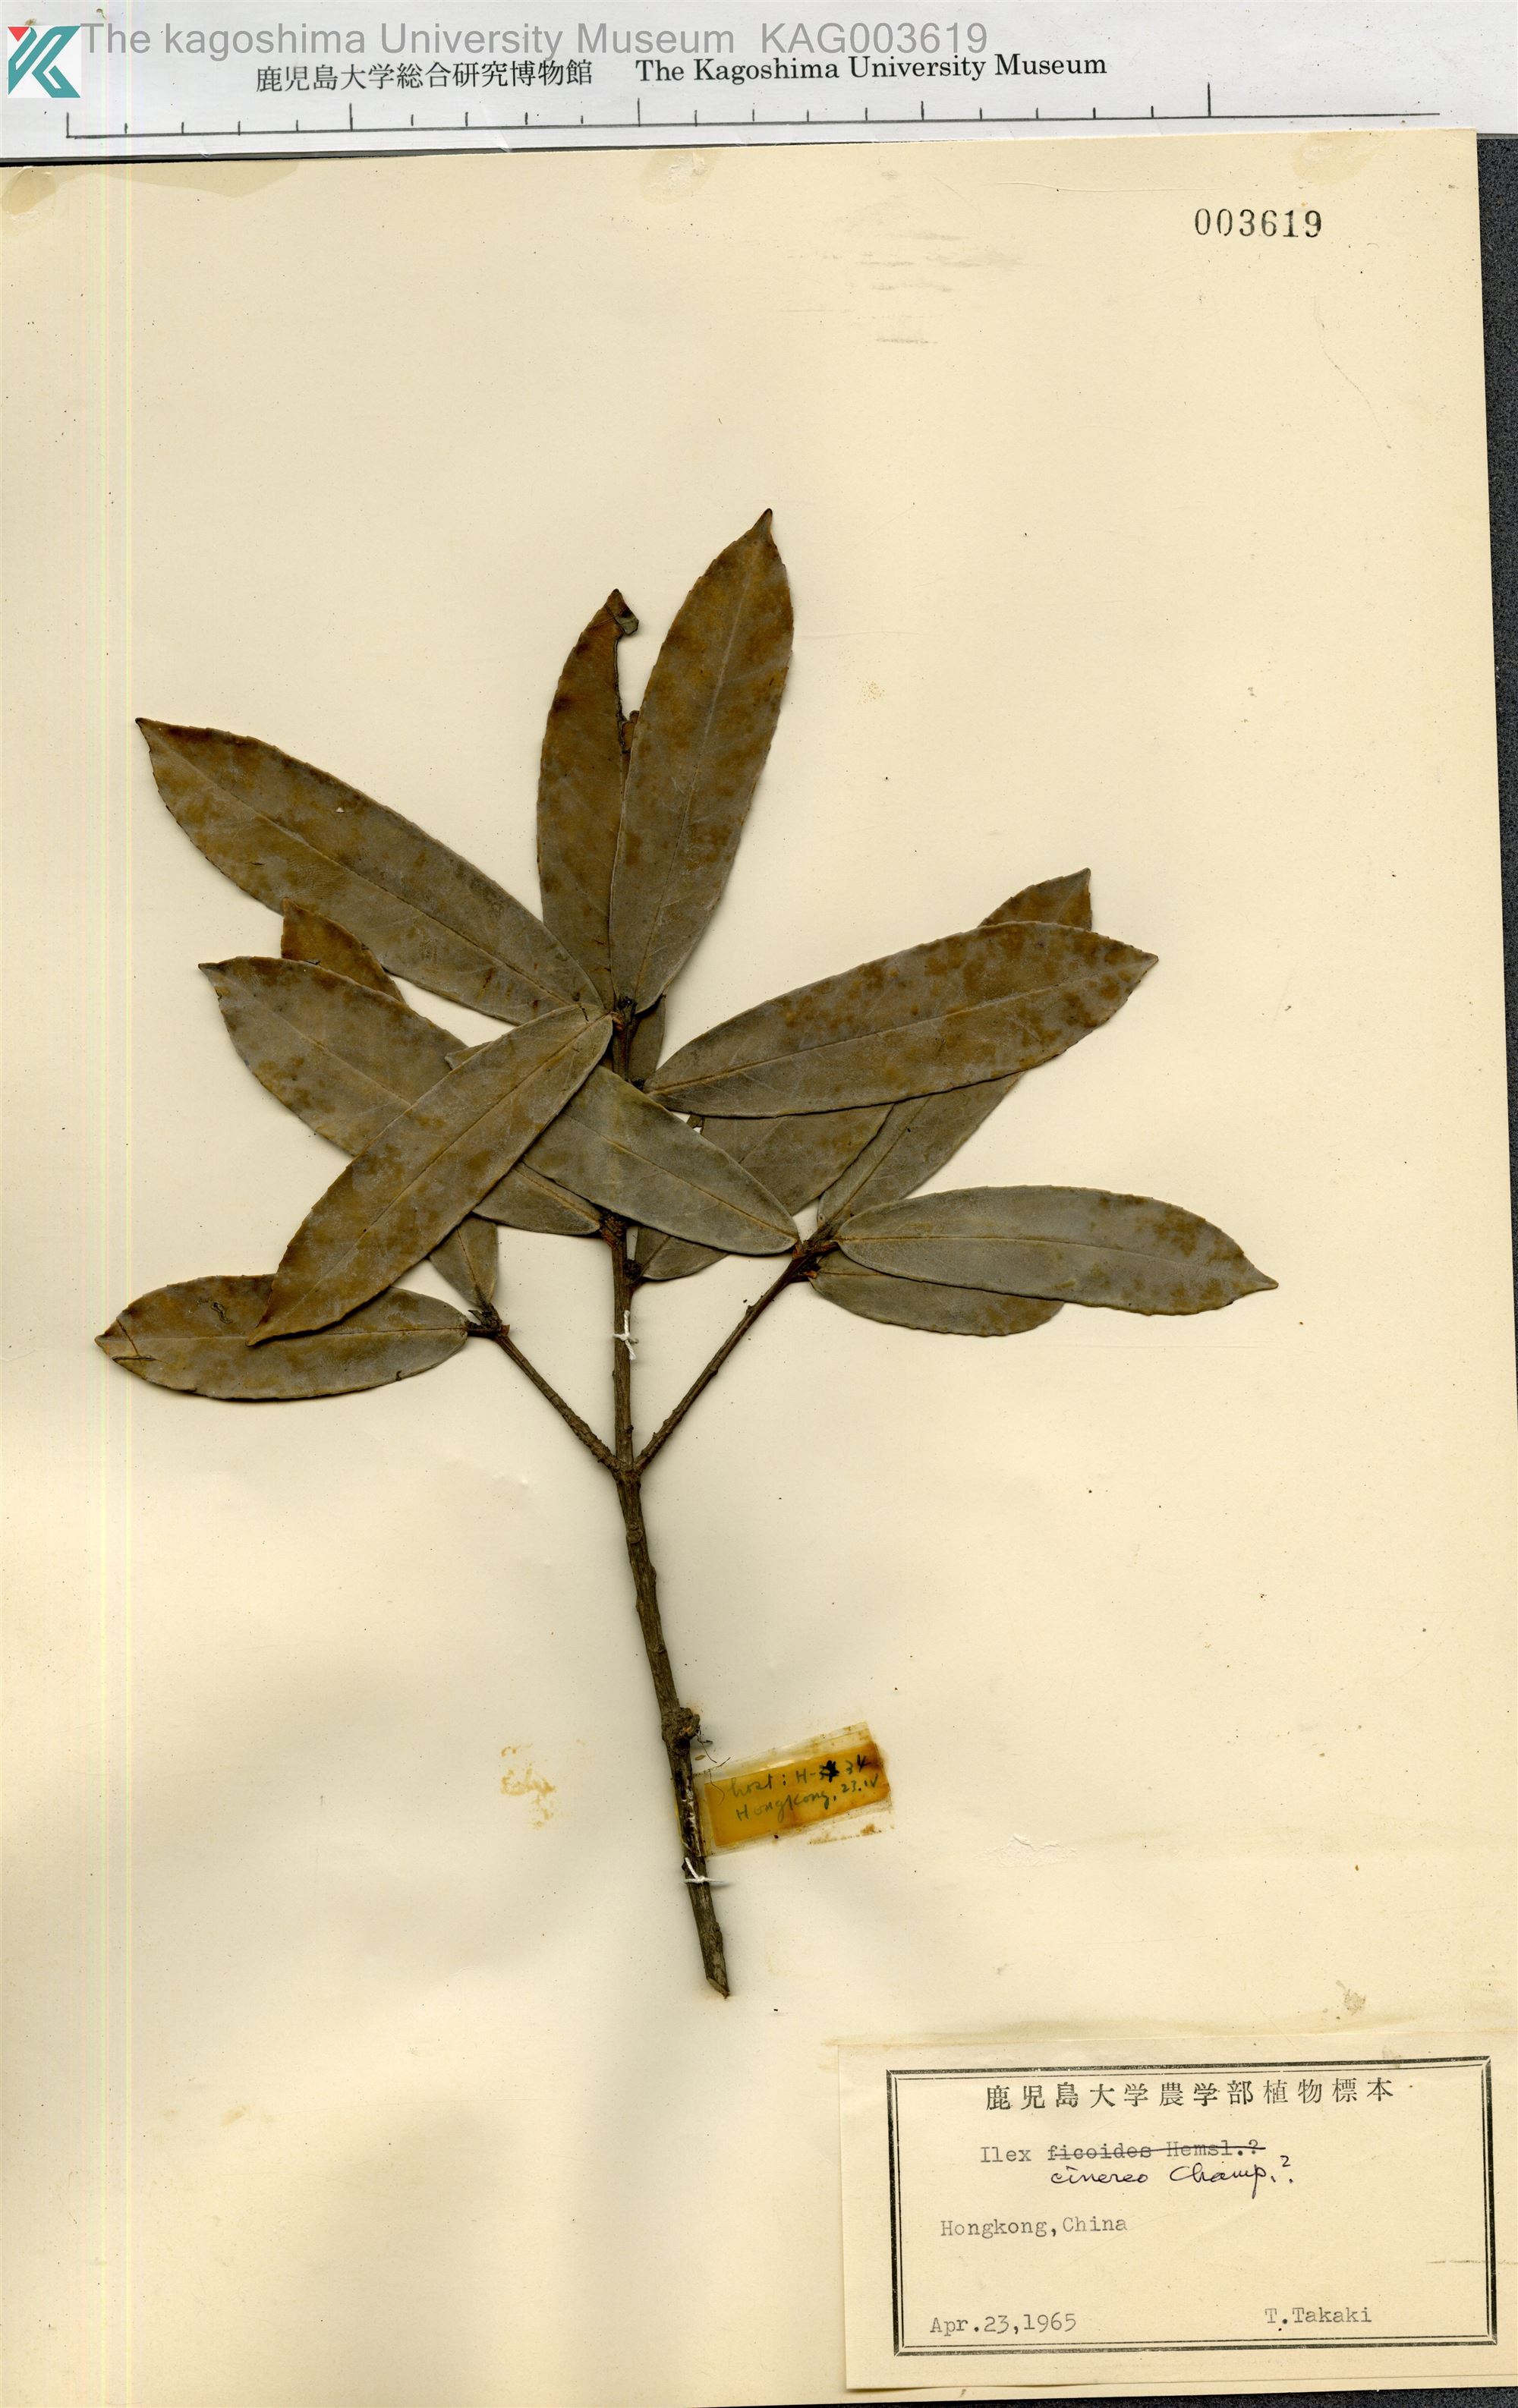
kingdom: Plantae
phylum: Tracheophyta
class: Magnoliopsida
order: Aquifoliales
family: Aquifoliaceae
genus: Ilex
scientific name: Ilex
